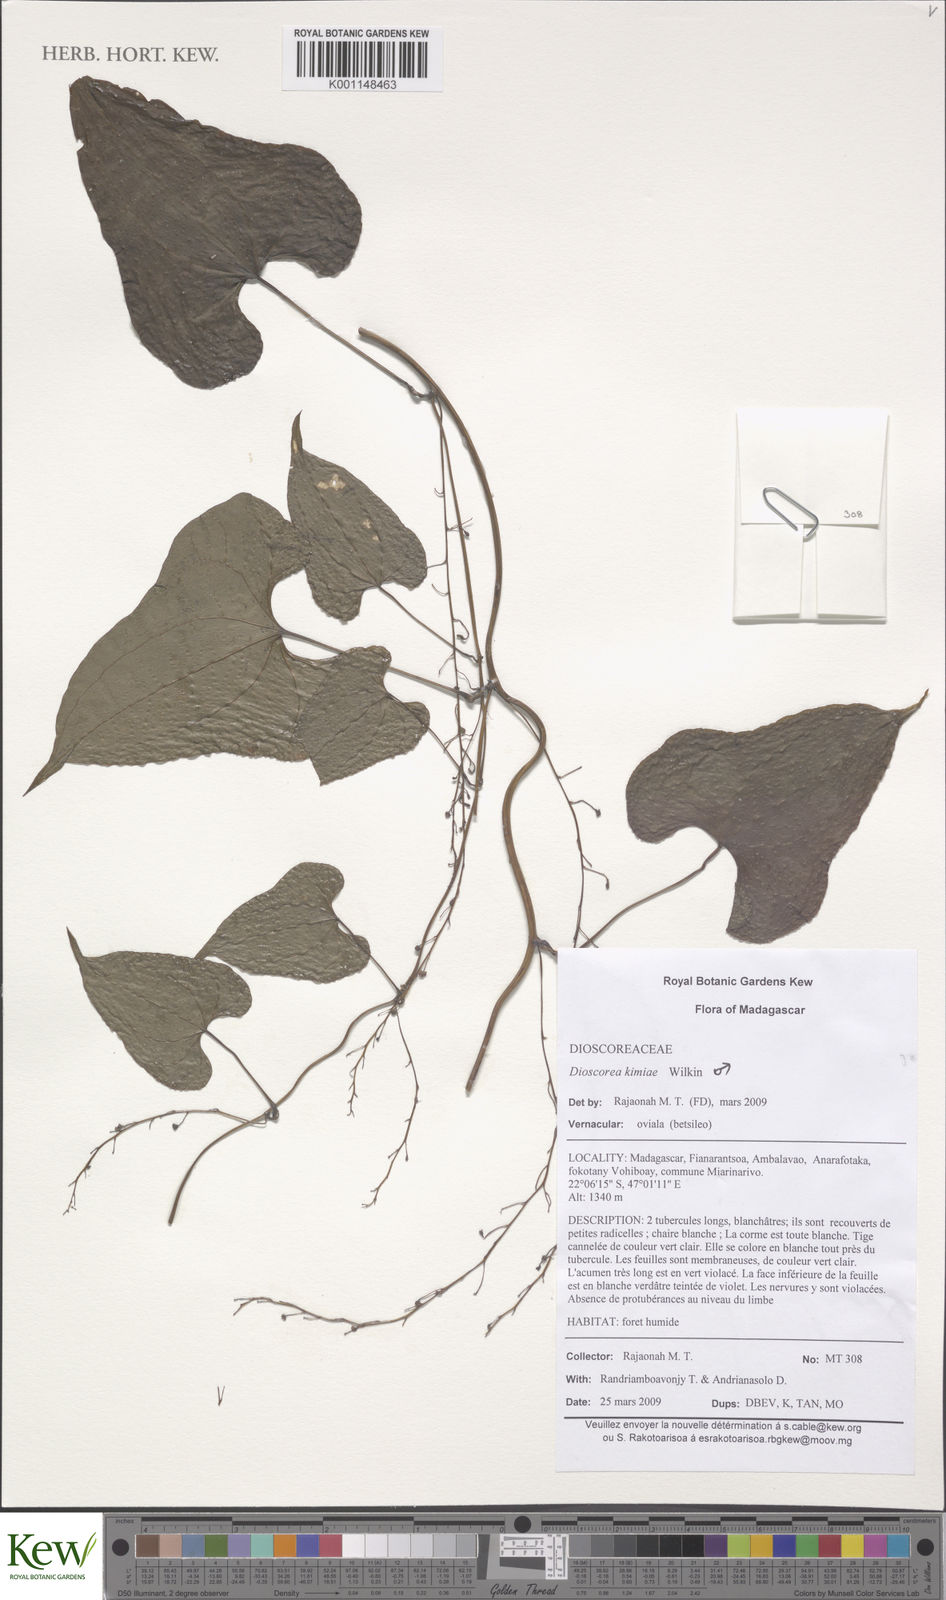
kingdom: Plantae
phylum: Tracheophyta
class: Liliopsida
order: Dioscoreales
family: Dioscoreaceae
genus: Dioscorea
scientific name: Dioscorea kimiae
